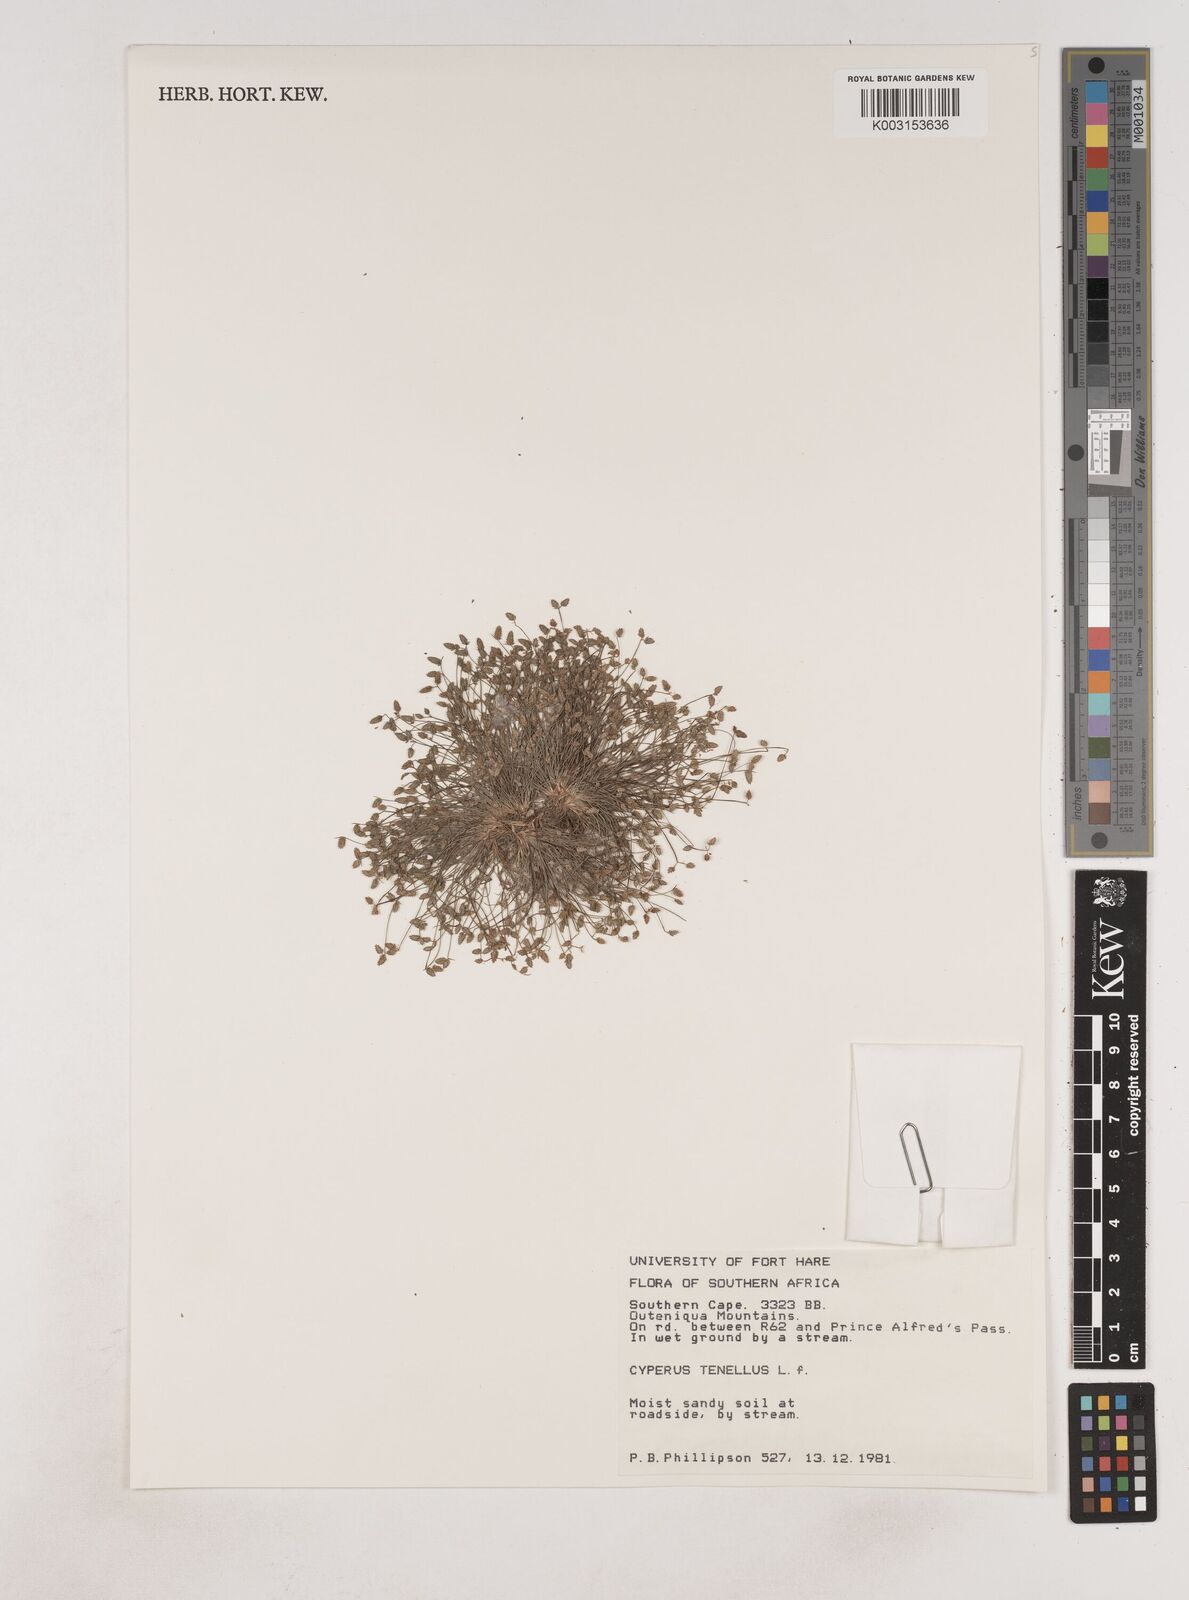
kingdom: Plantae
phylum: Tracheophyta
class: Liliopsida
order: Poales
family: Cyperaceae
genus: Isolepis
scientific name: Isolepis levynsiana
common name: Sedge
